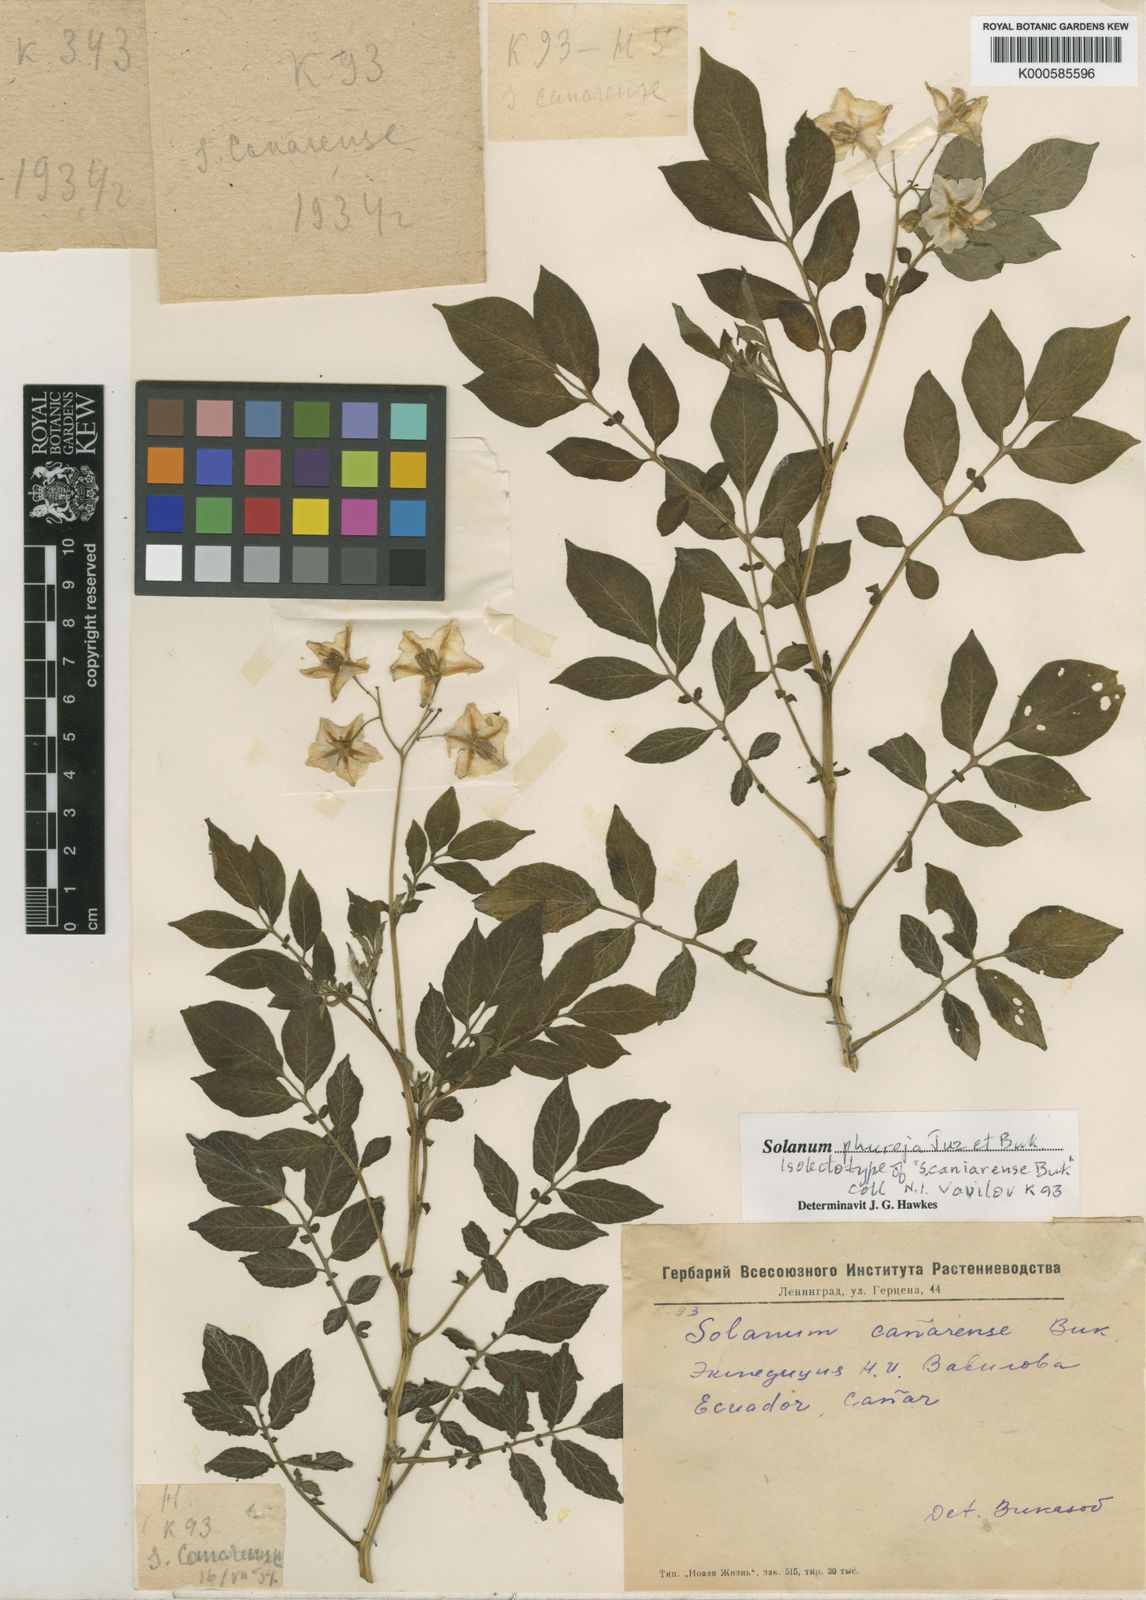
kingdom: Plantae
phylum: Tracheophyta
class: Magnoliopsida
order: Solanales
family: Solanaceae
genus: Solanum
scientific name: Solanum tuberosum
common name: Potato
